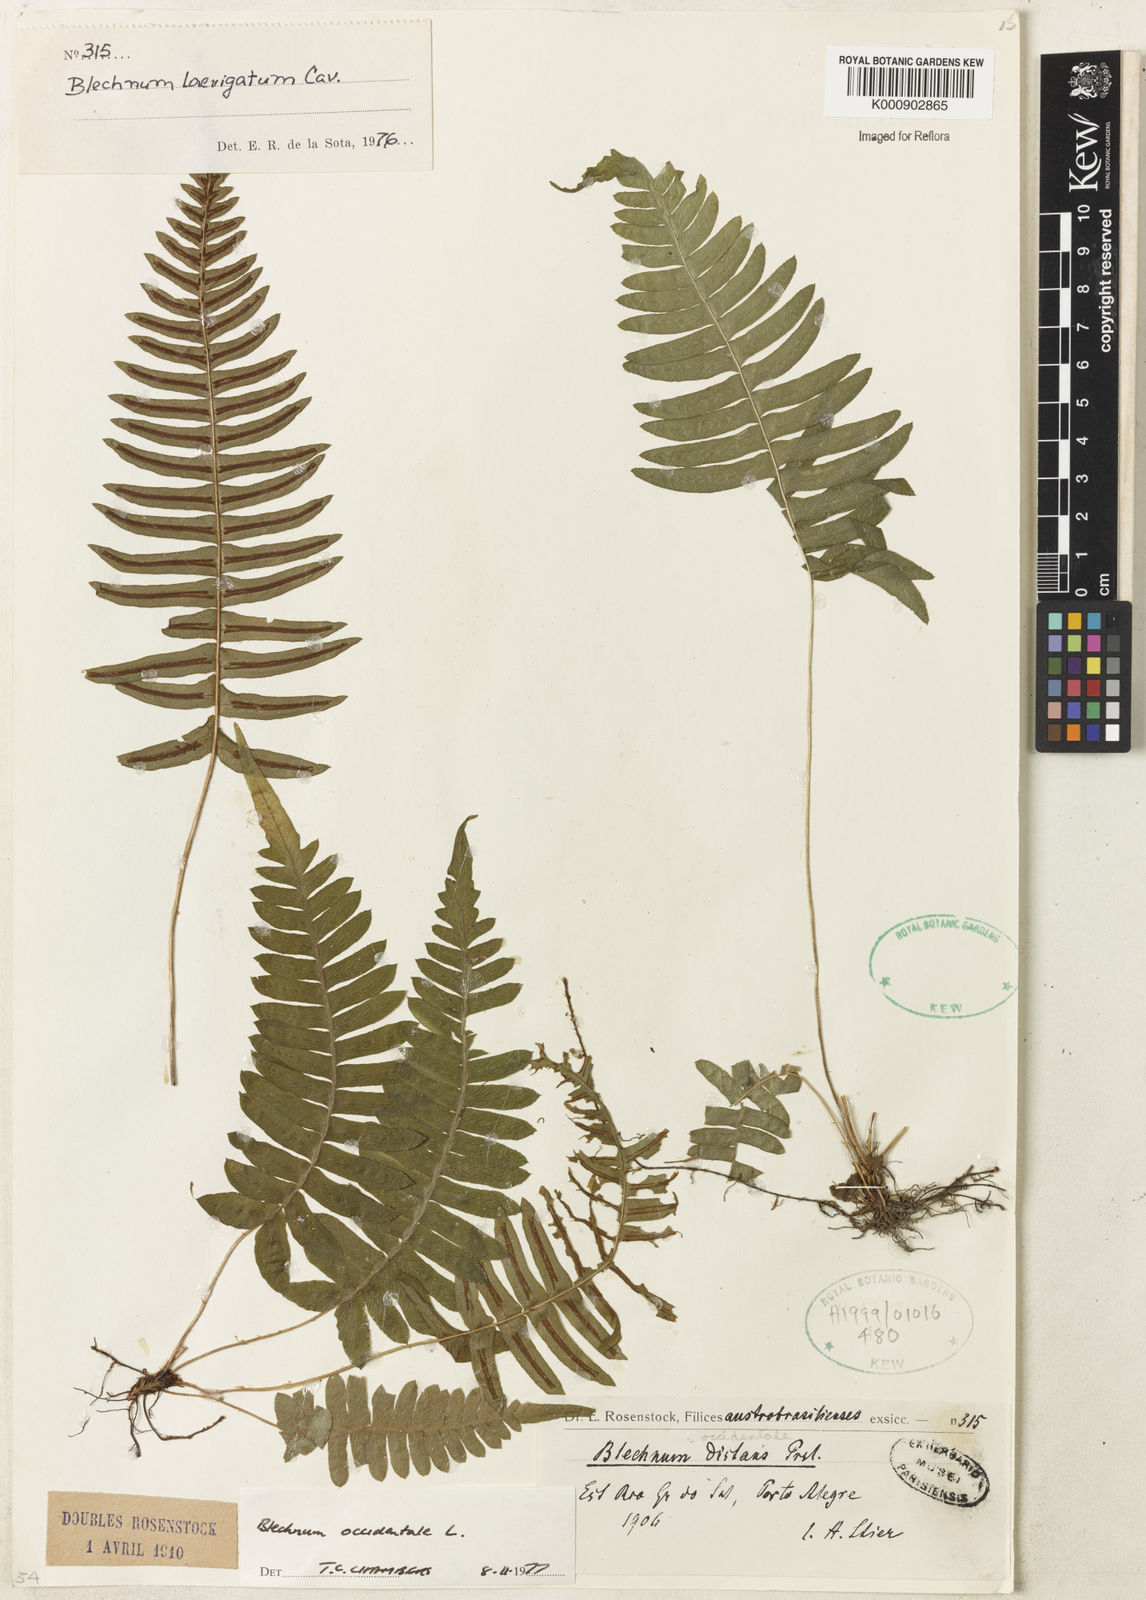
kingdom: Plantae
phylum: Tracheophyta
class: Polypodiopsida
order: Polypodiales
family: Blechnaceae
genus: Blechnum
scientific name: Blechnum occidentale
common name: Hammock fern
